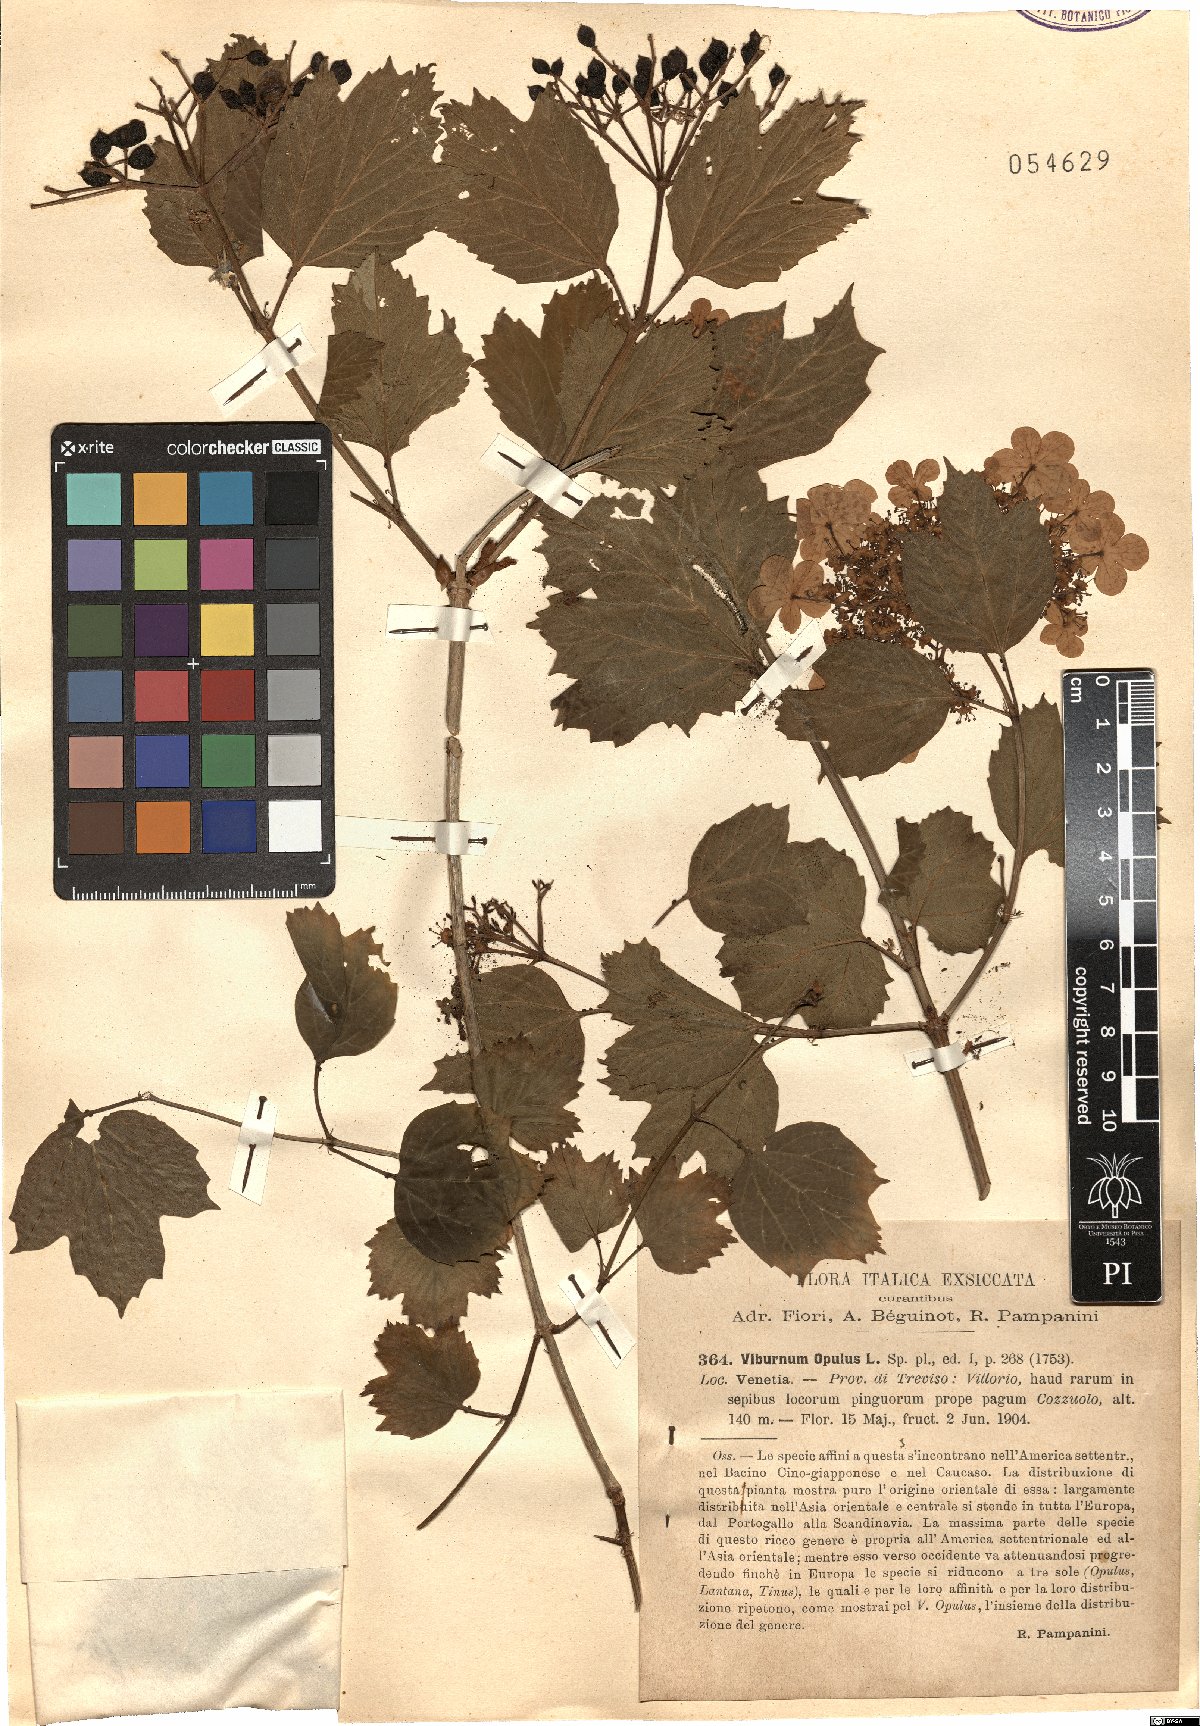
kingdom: Plantae
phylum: Tracheophyta
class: Magnoliopsida
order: Dipsacales
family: Viburnaceae
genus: Viburnum
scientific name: Viburnum opulus
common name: Guelder-rose
